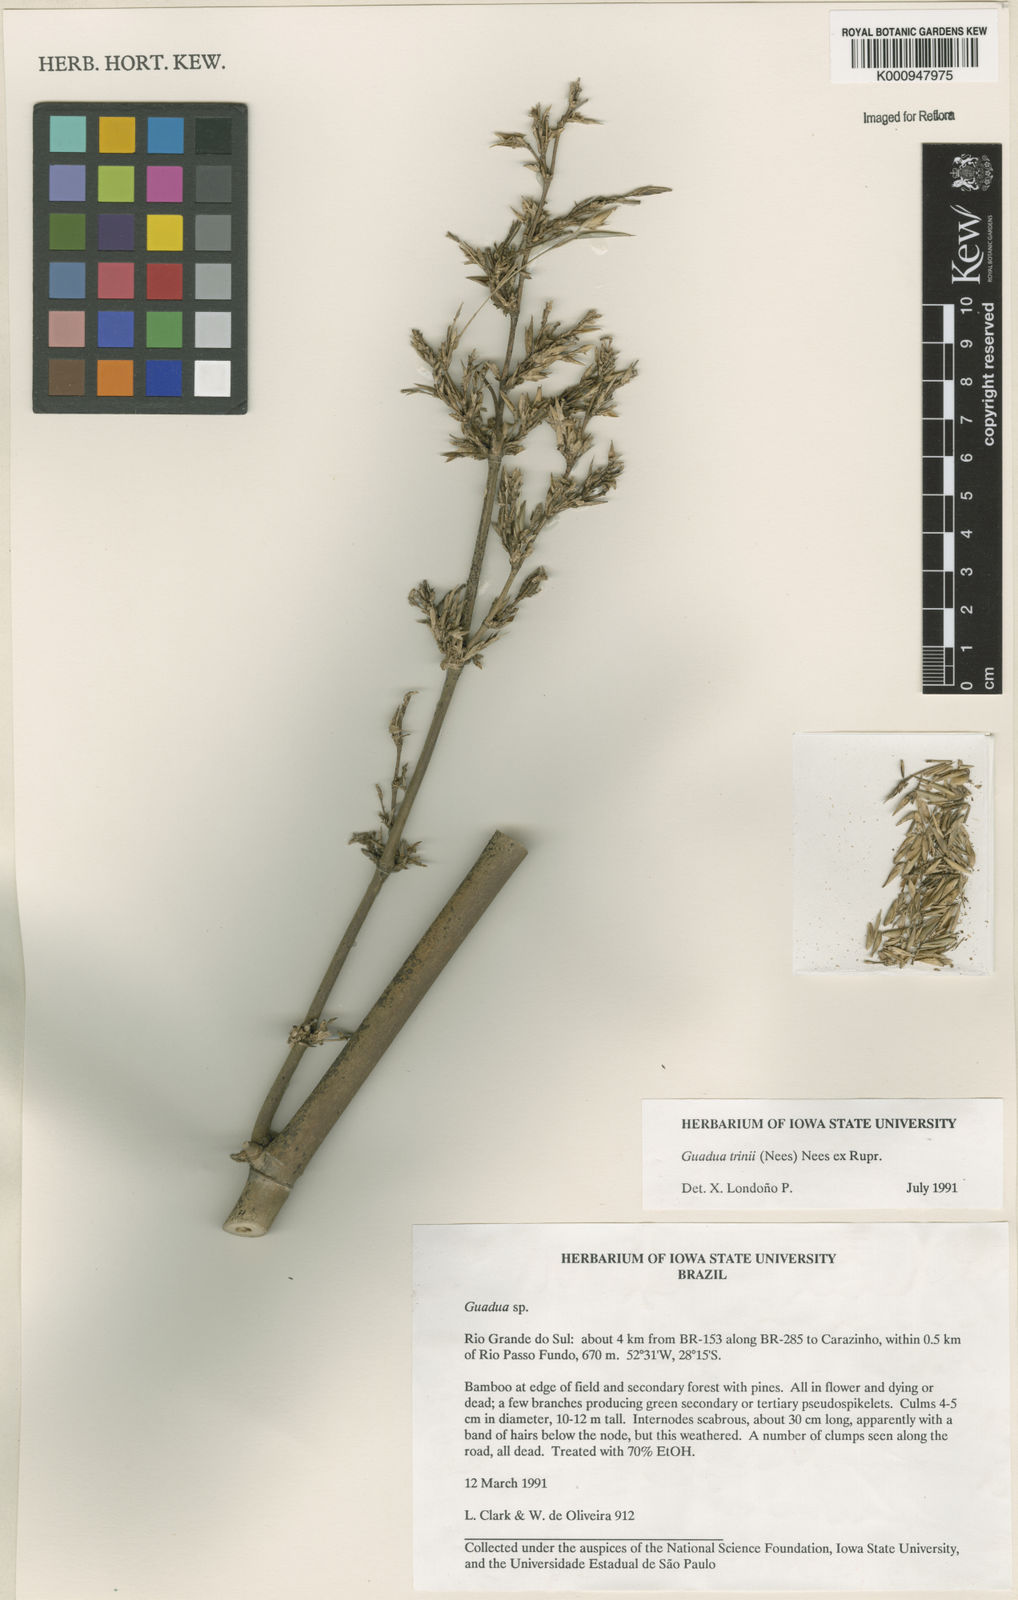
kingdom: Plantae
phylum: Tracheophyta
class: Liliopsida
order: Poales
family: Poaceae
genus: Guadua
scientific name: Guadua trinii
